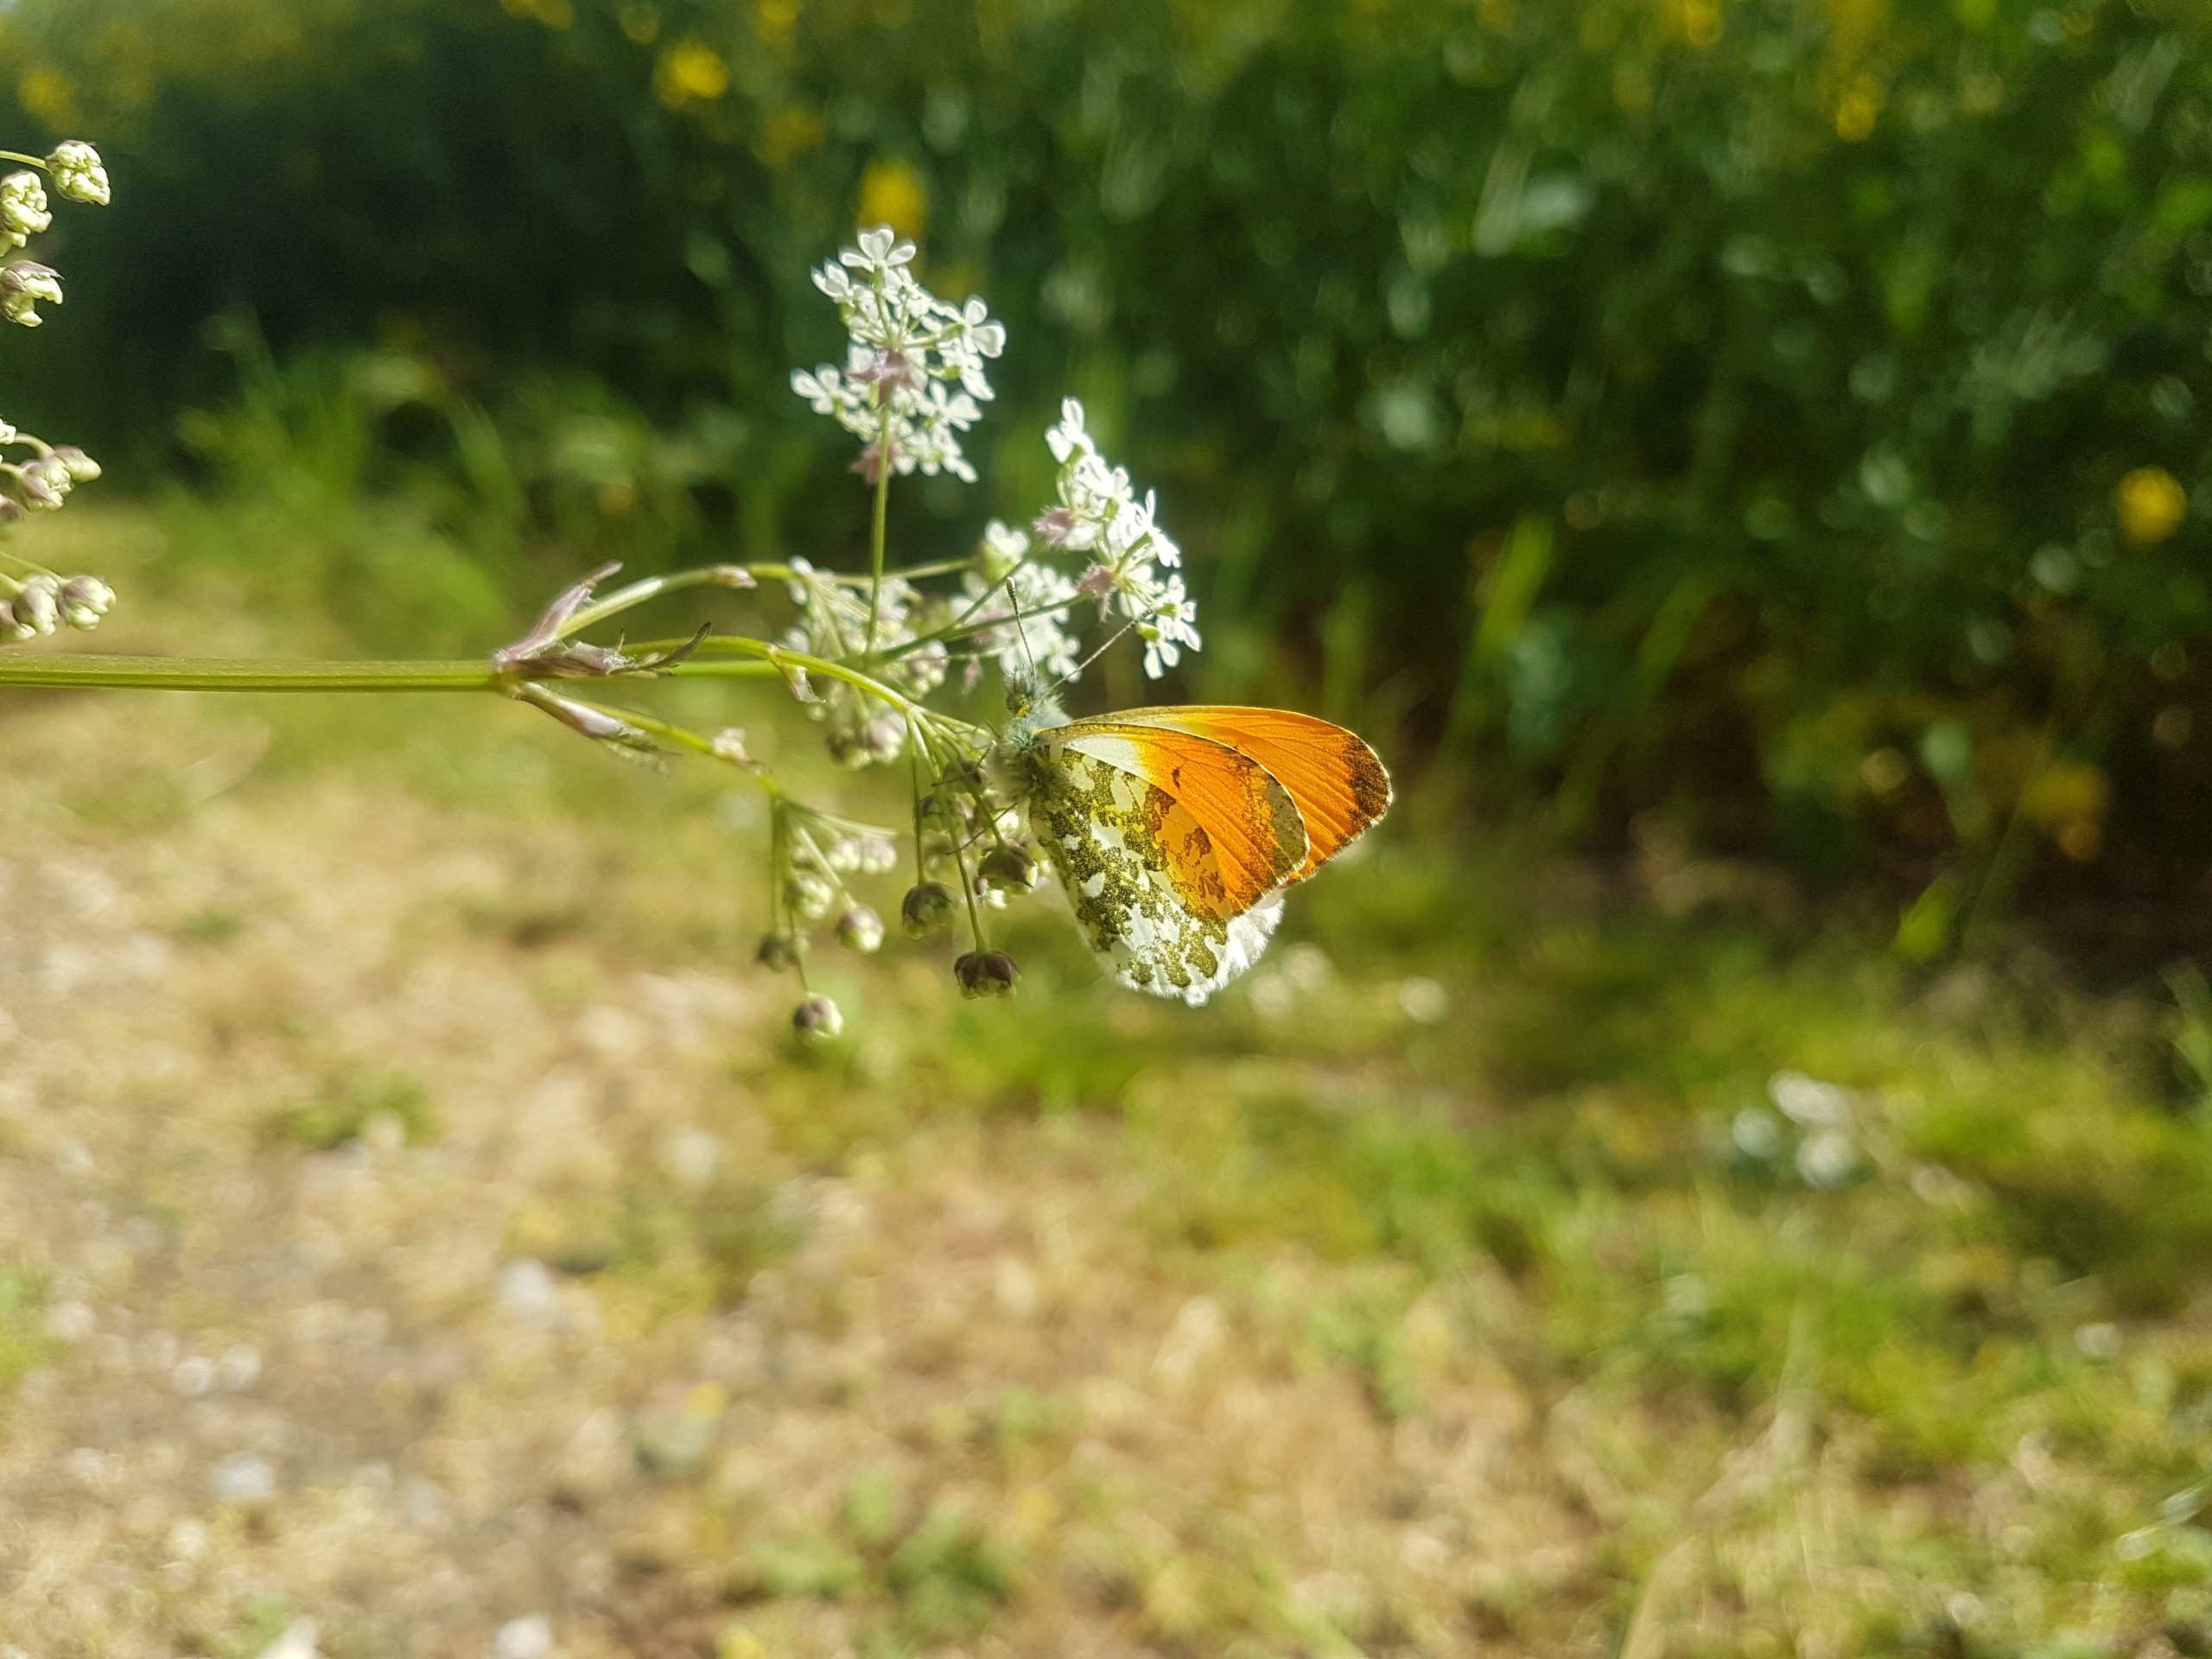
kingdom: Animalia
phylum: Arthropoda
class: Insecta
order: Lepidoptera
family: Pieridae
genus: Anthocharis
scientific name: Anthocharis cardamines
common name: Aurora
